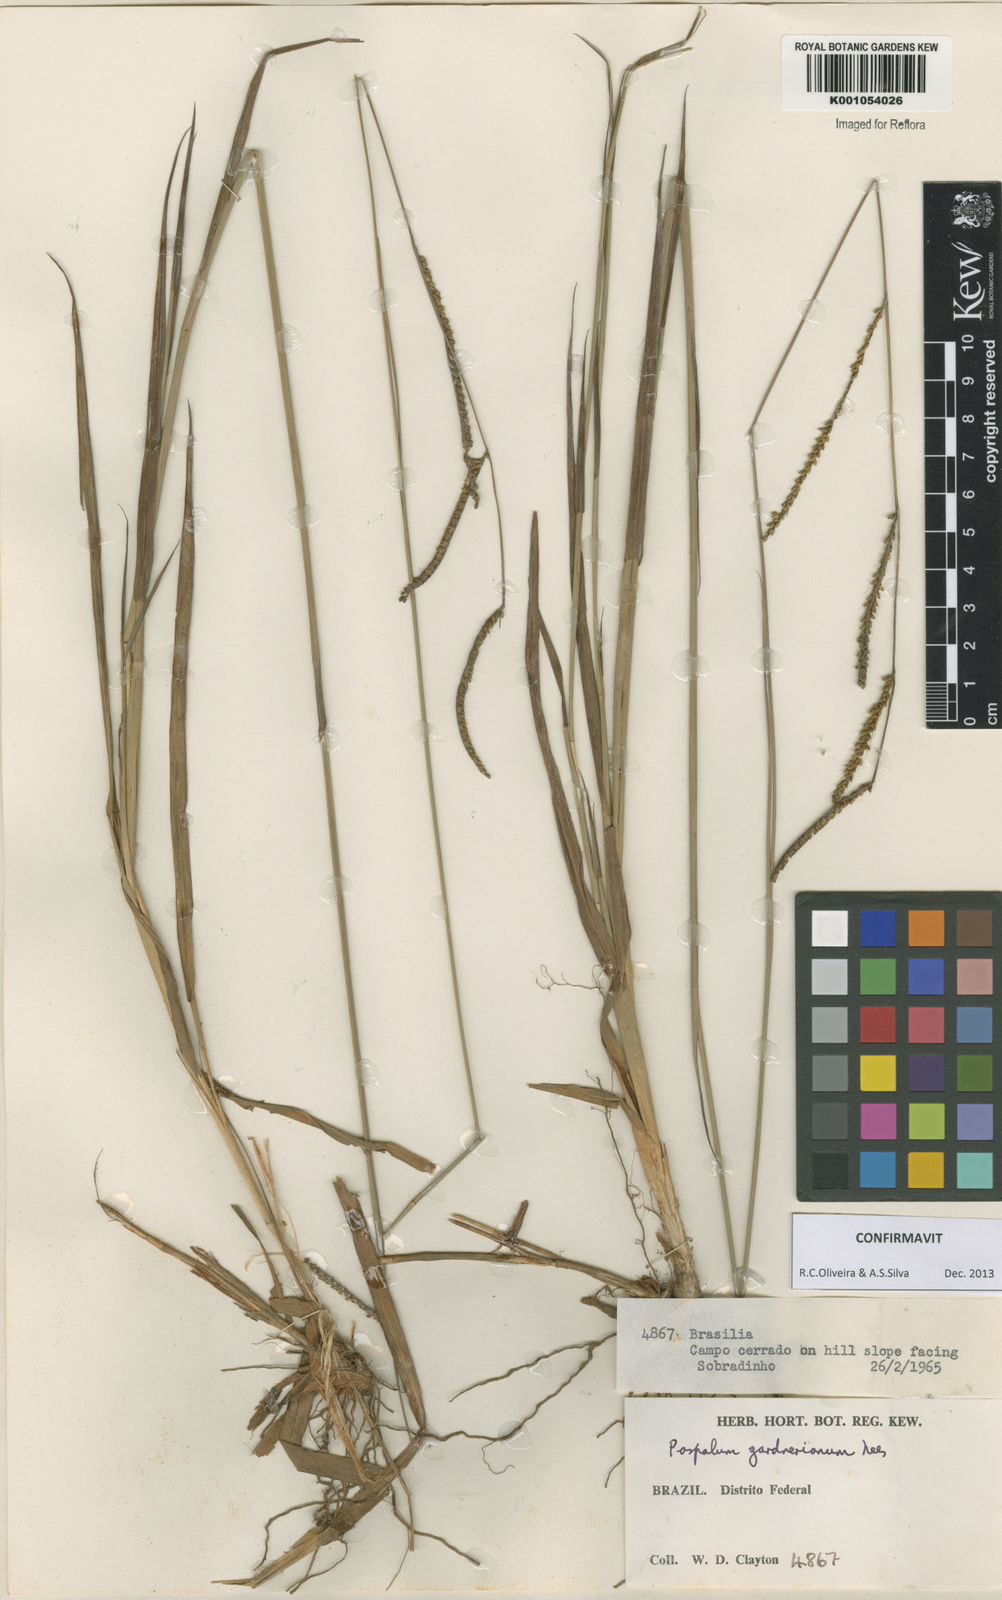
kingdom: Plantae
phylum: Tracheophyta
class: Liliopsida
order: Poales
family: Poaceae
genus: Paspalum
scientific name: Paspalum gardnerianum
